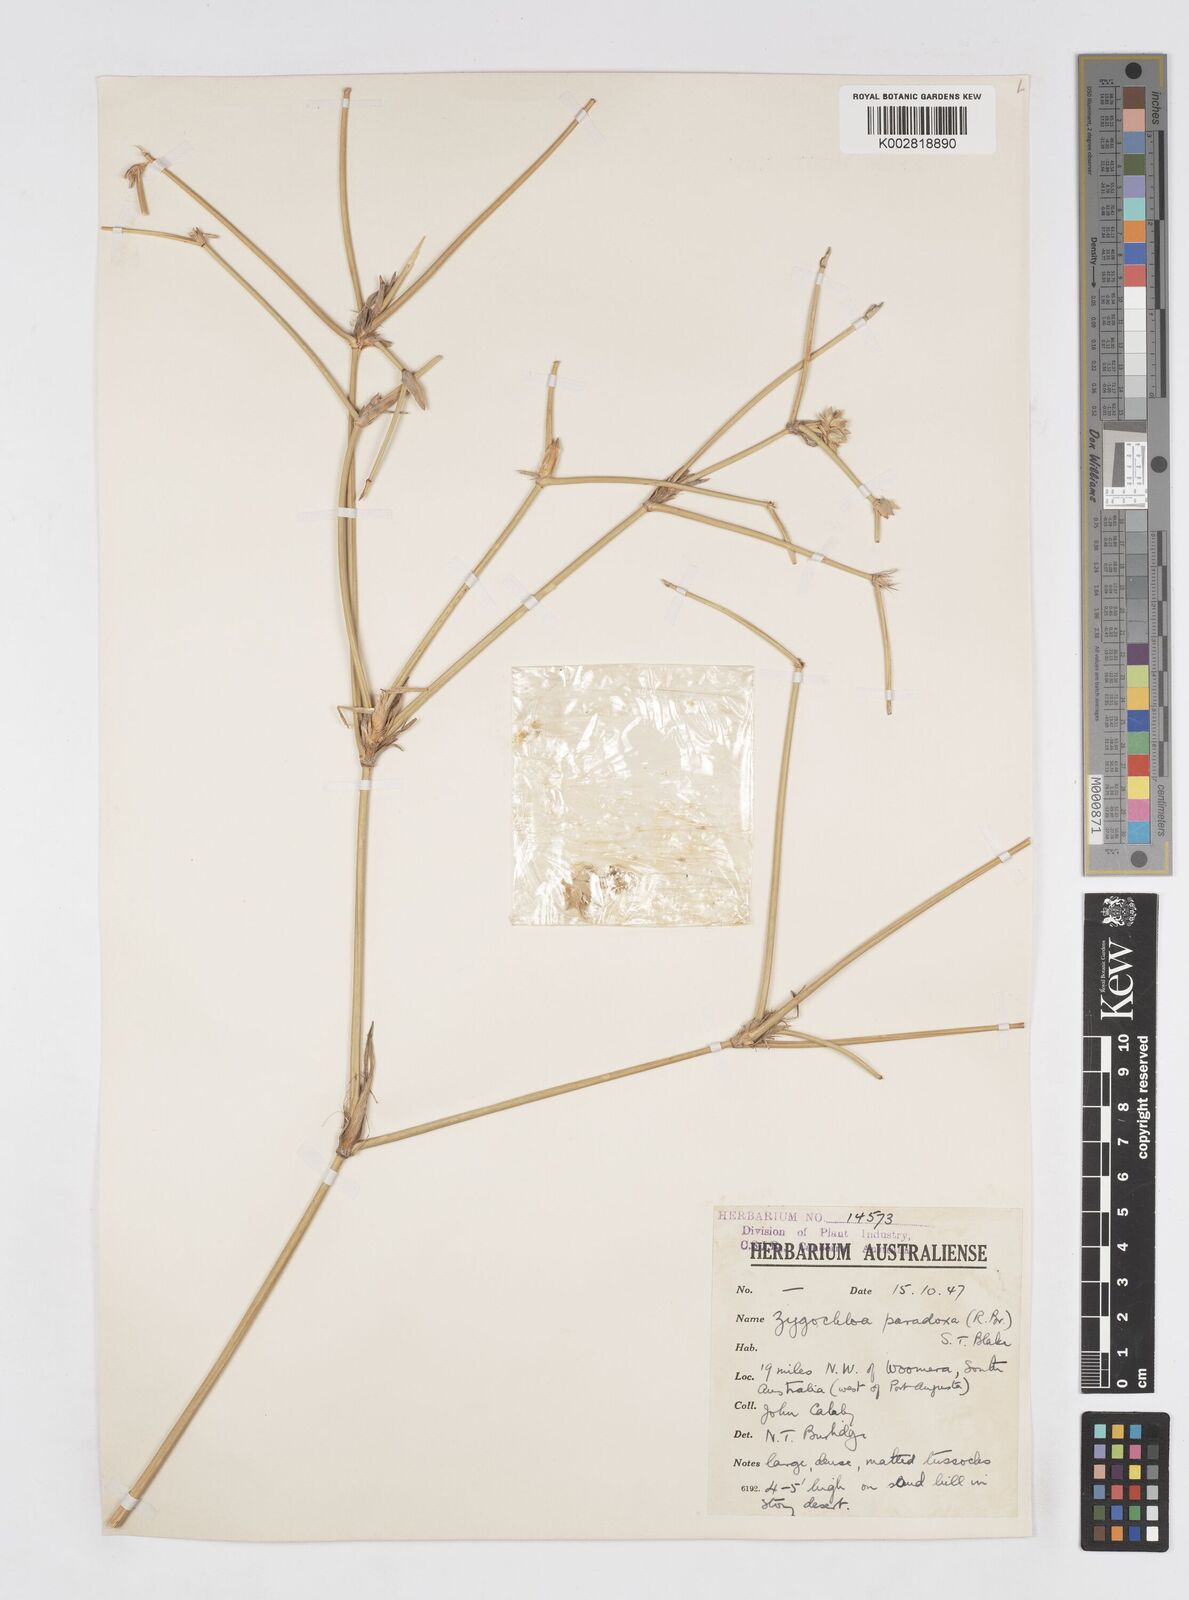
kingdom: Plantae
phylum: Tracheophyta
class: Liliopsida
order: Poales
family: Poaceae
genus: Zygochloa
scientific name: Zygochloa paradoxa
